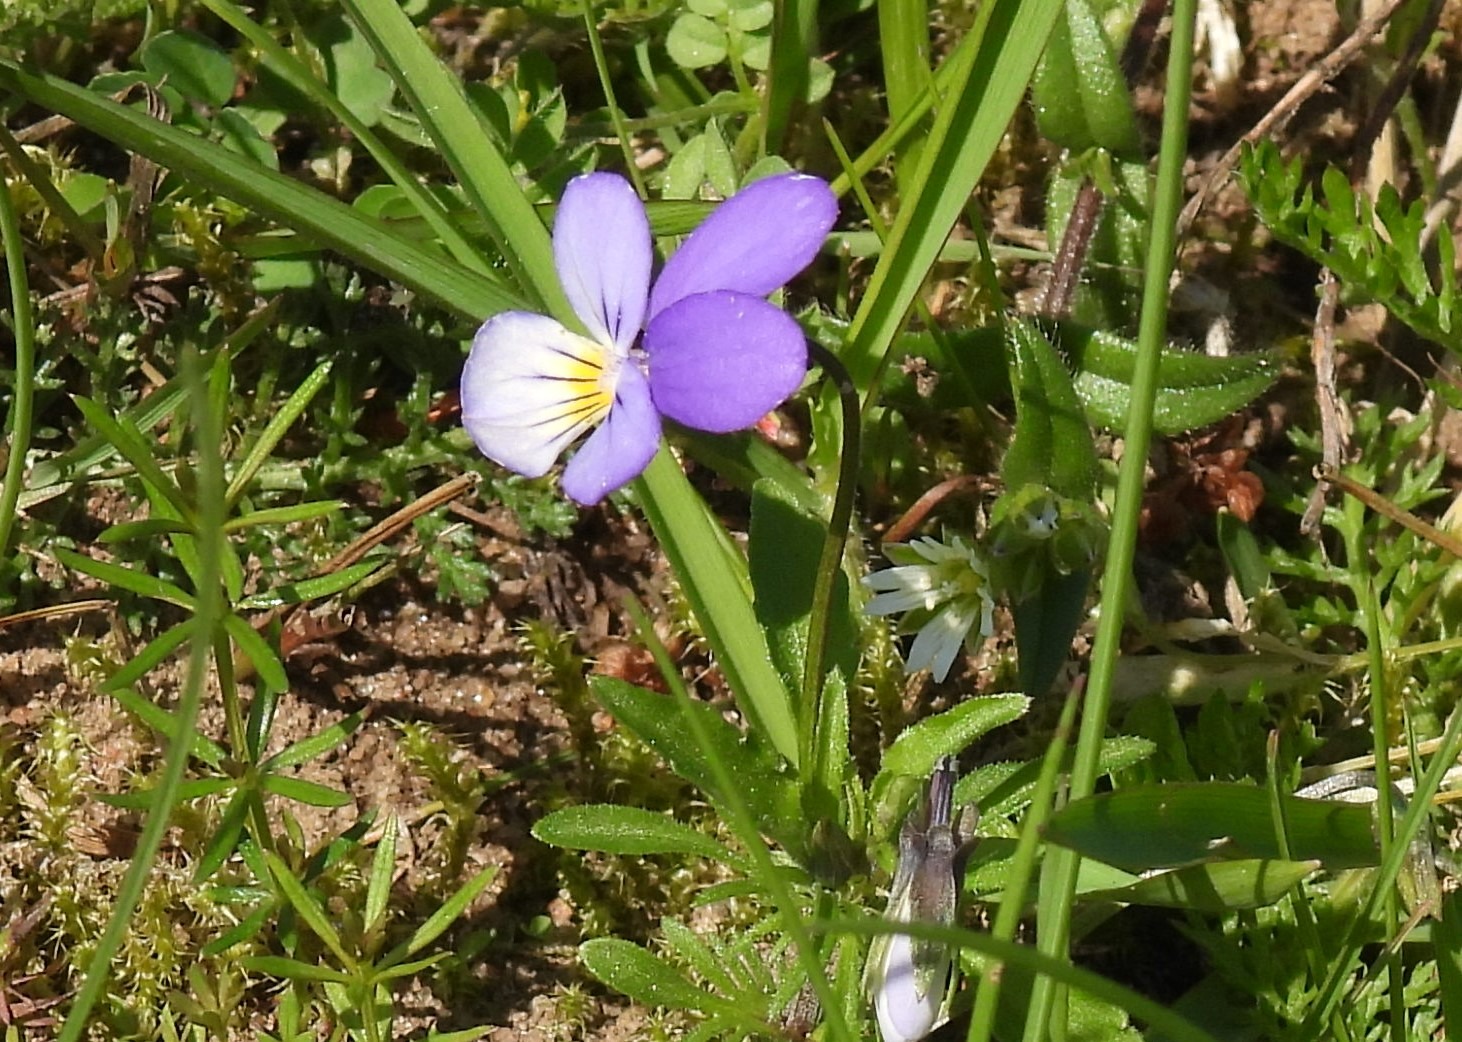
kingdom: Plantae
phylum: Tracheophyta
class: Magnoliopsida
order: Malpighiales
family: Violaceae
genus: Viola
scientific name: Viola tricolor
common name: Almindelig stedmoderblomst
